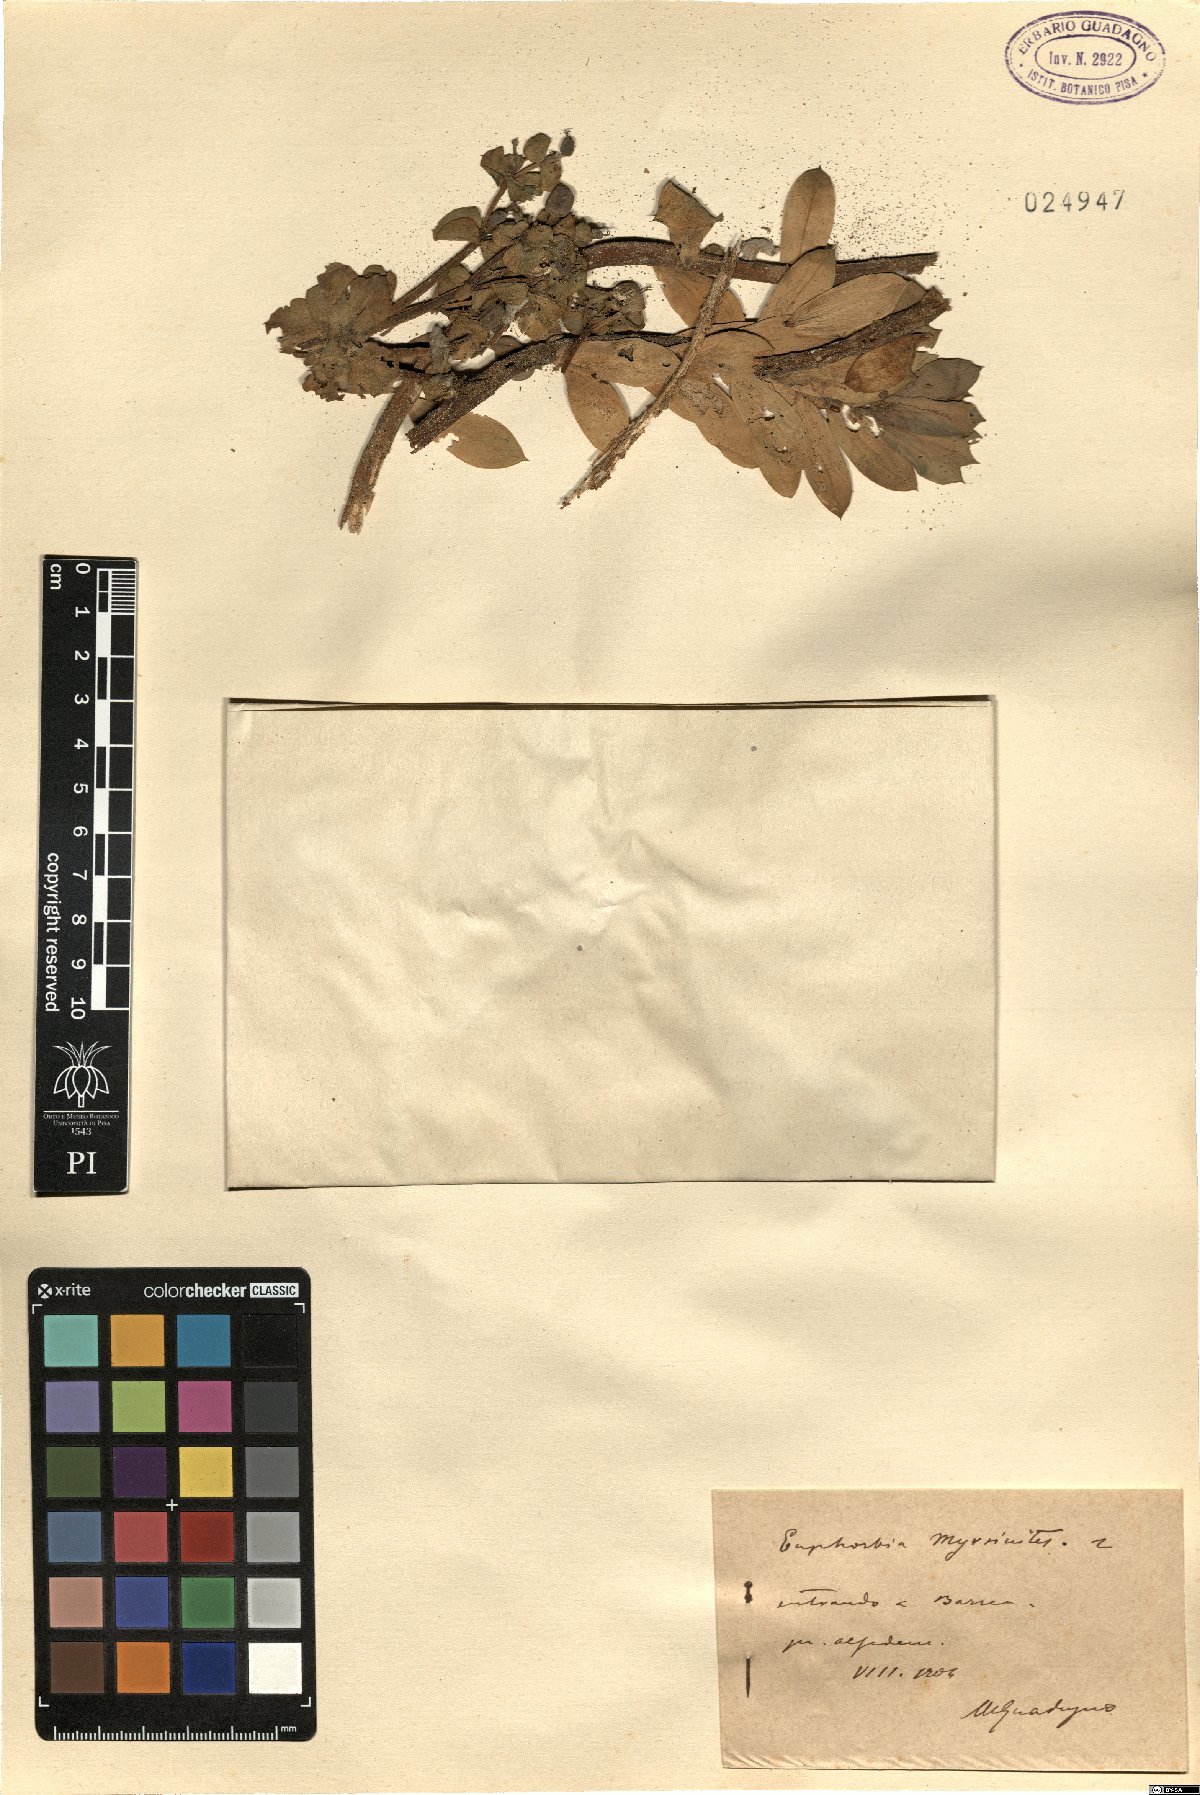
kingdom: Plantae
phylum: Tracheophyta
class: Magnoliopsida
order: Malpighiales
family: Euphorbiaceae
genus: Euphorbia
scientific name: Euphorbia myrsinites
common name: Myrtle spurge
